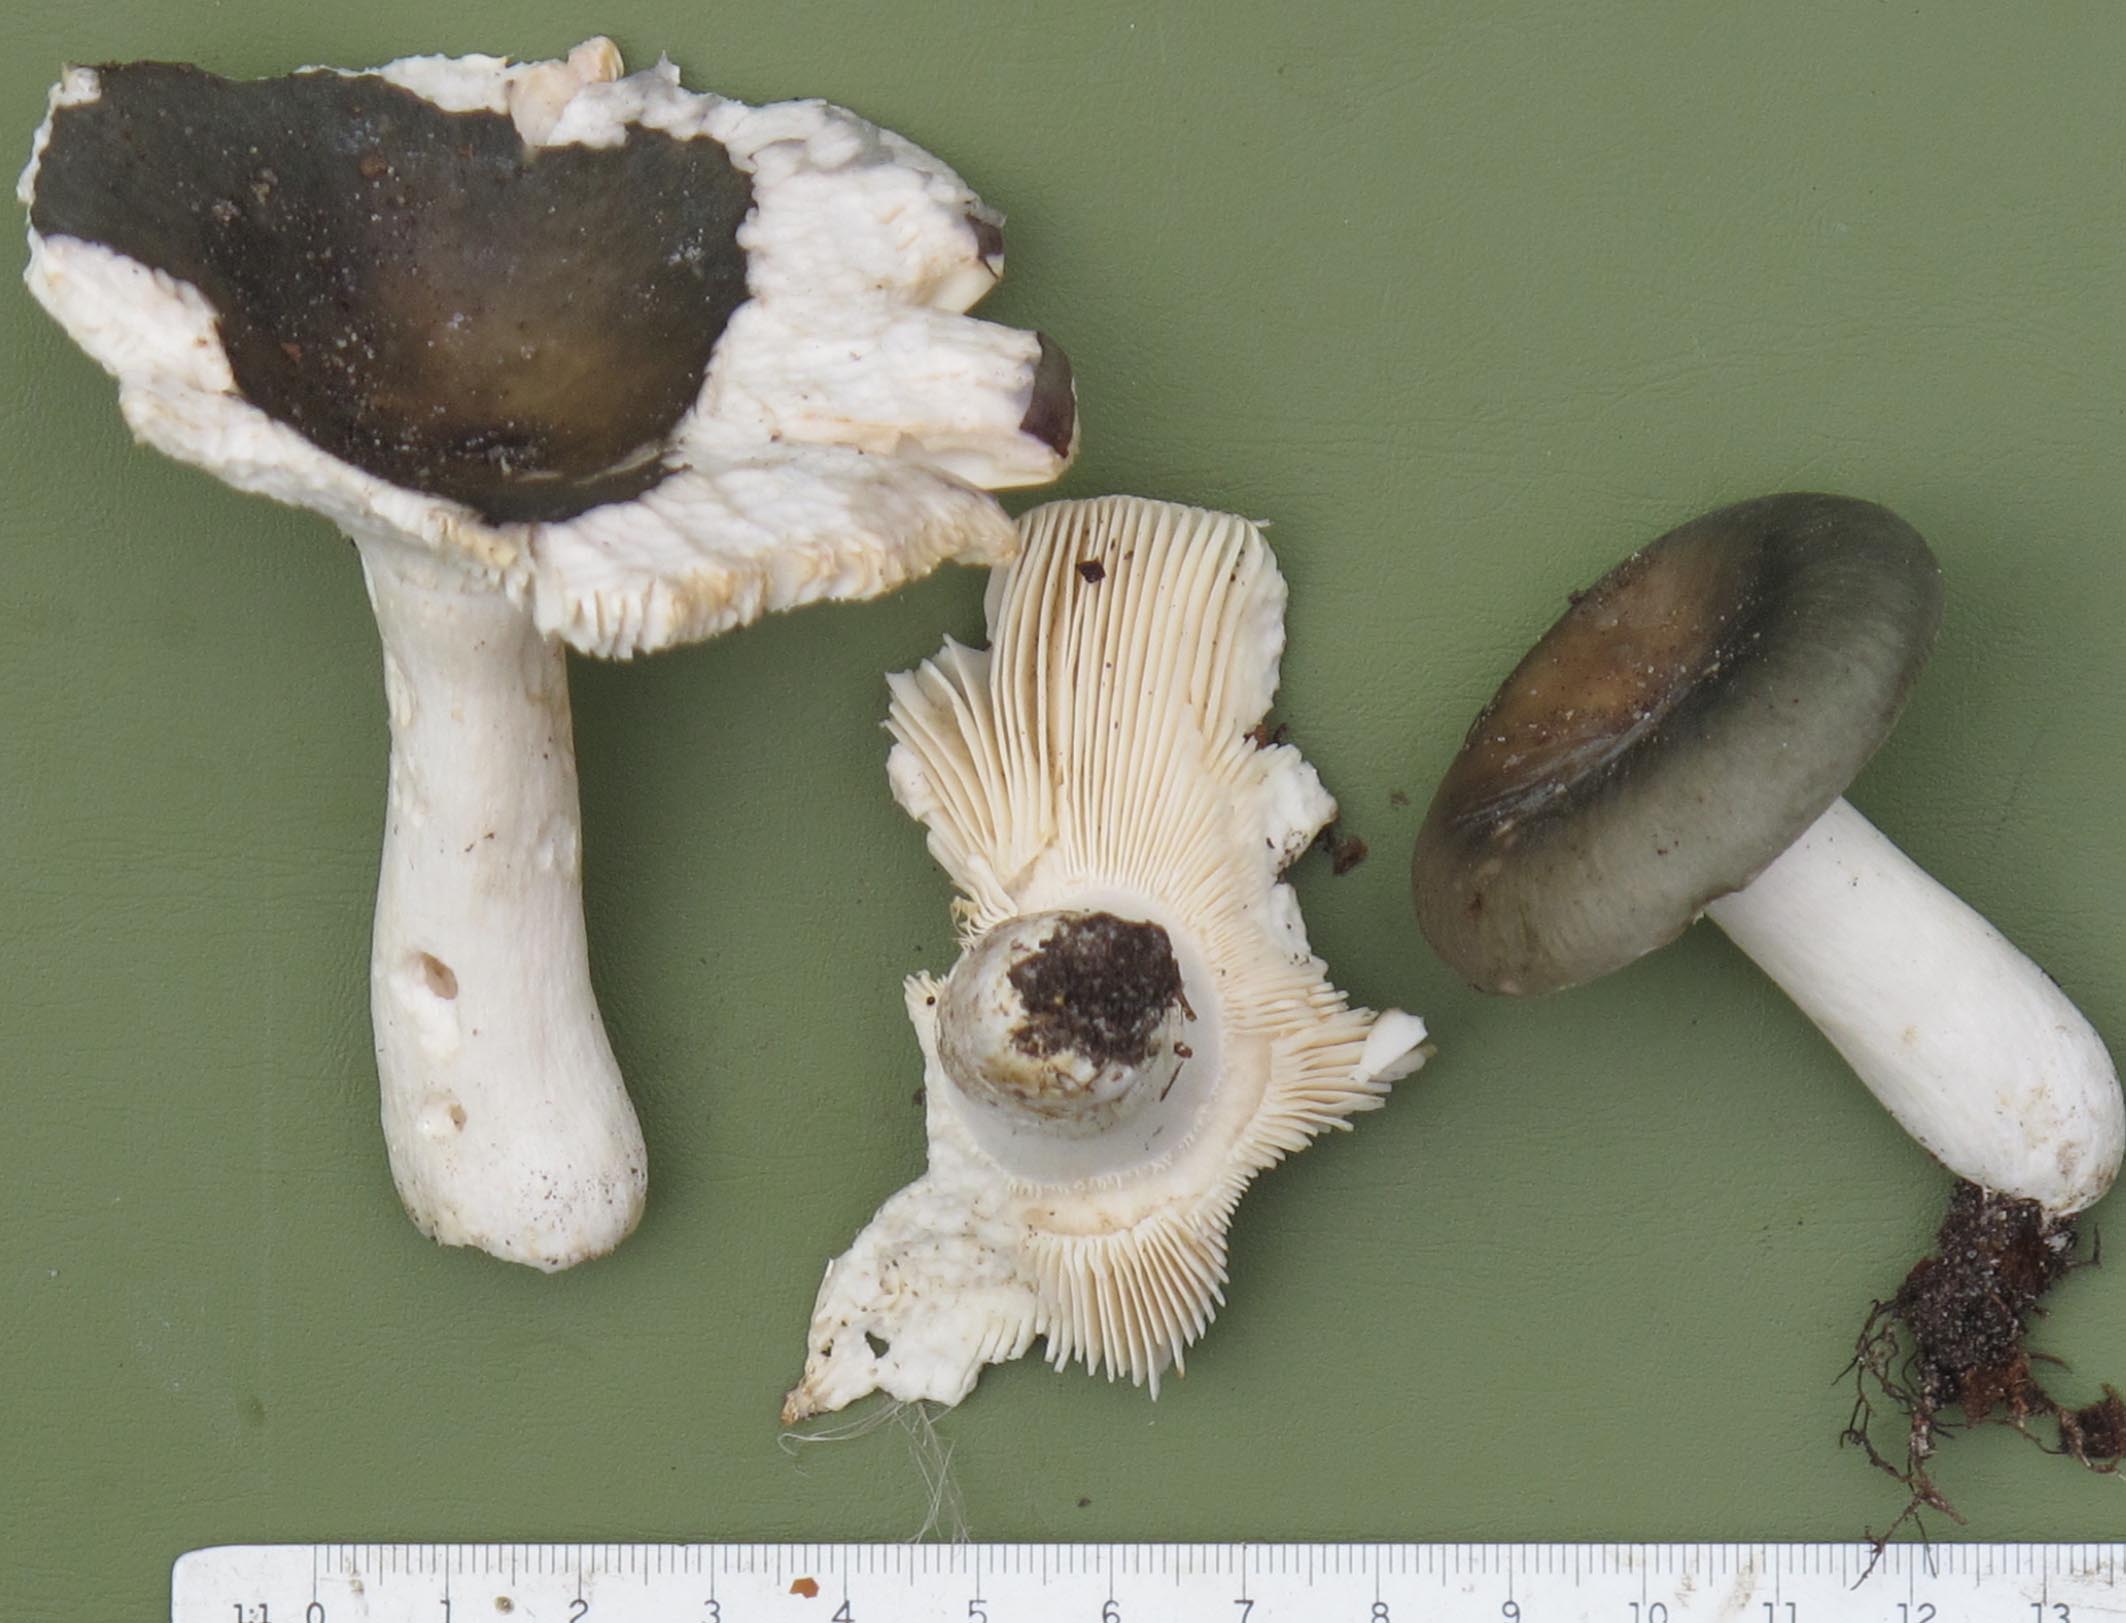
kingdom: Fungi
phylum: Basidiomycota
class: Agaricomycetes
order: Russulales
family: Russulaceae
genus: Russula
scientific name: Russula parazurea
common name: blågrå skørhat
